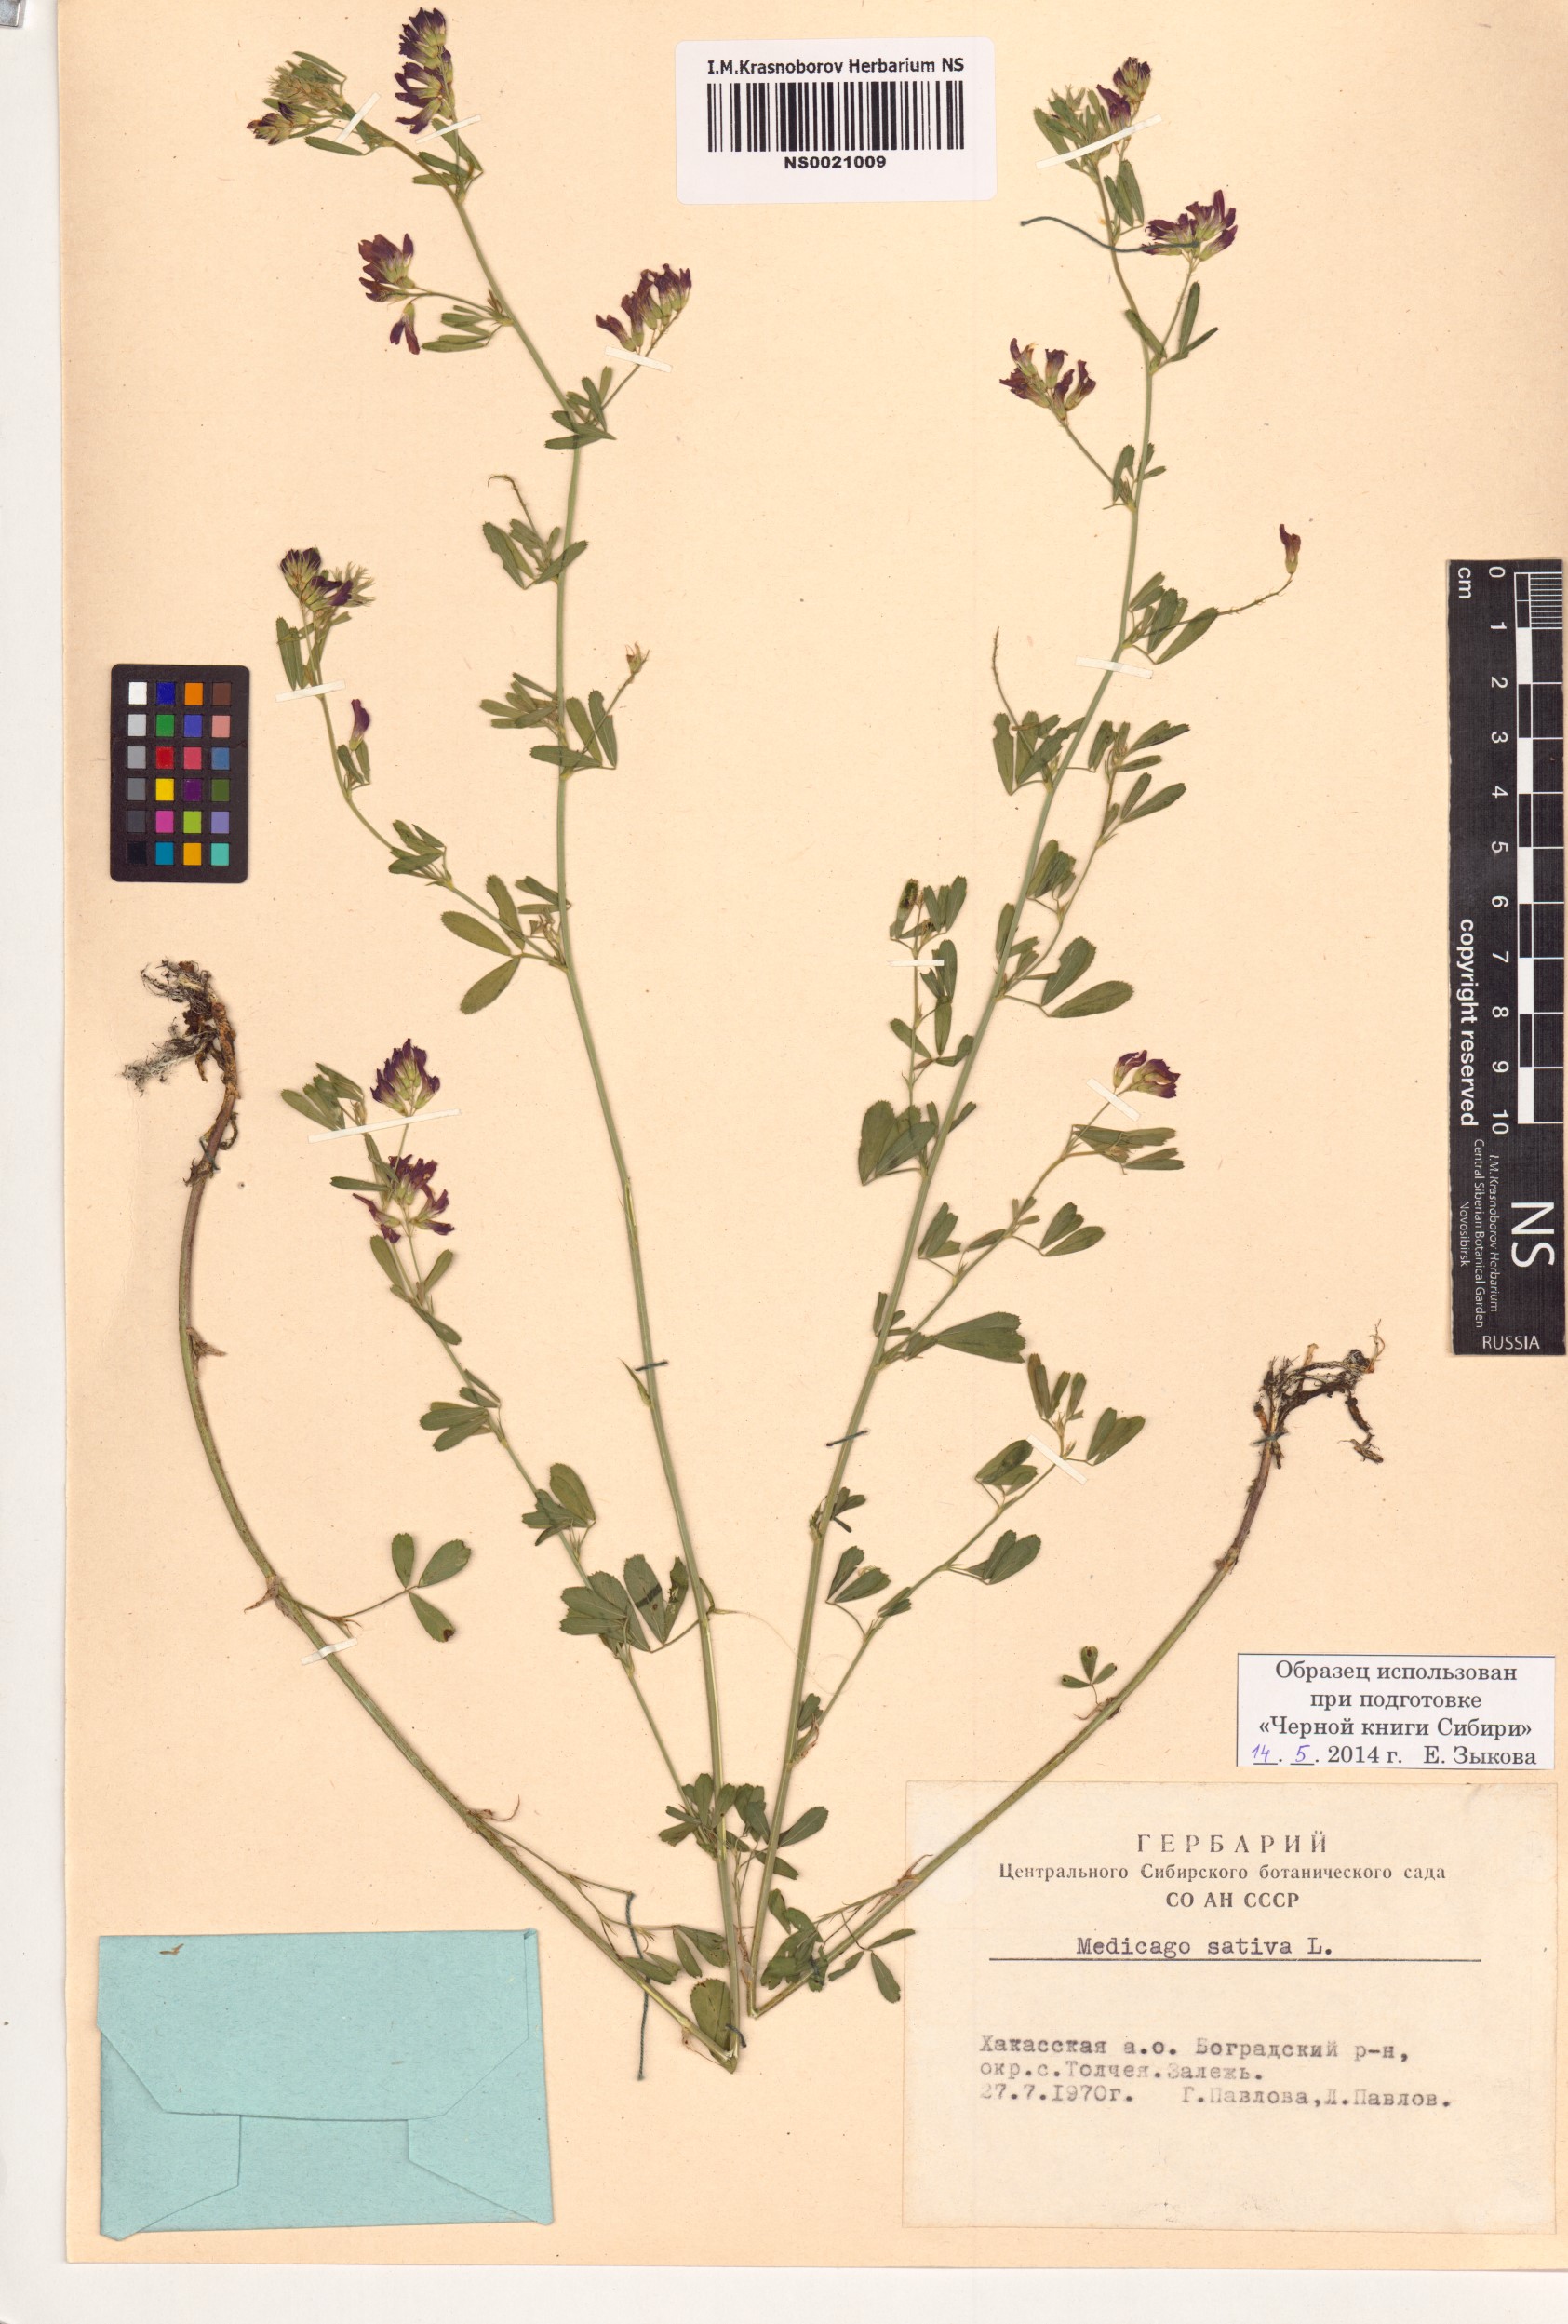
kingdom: Plantae
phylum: Tracheophyta
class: Magnoliopsida
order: Fabales
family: Fabaceae
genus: Medicago
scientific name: Medicago sativa
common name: Alfalfa
